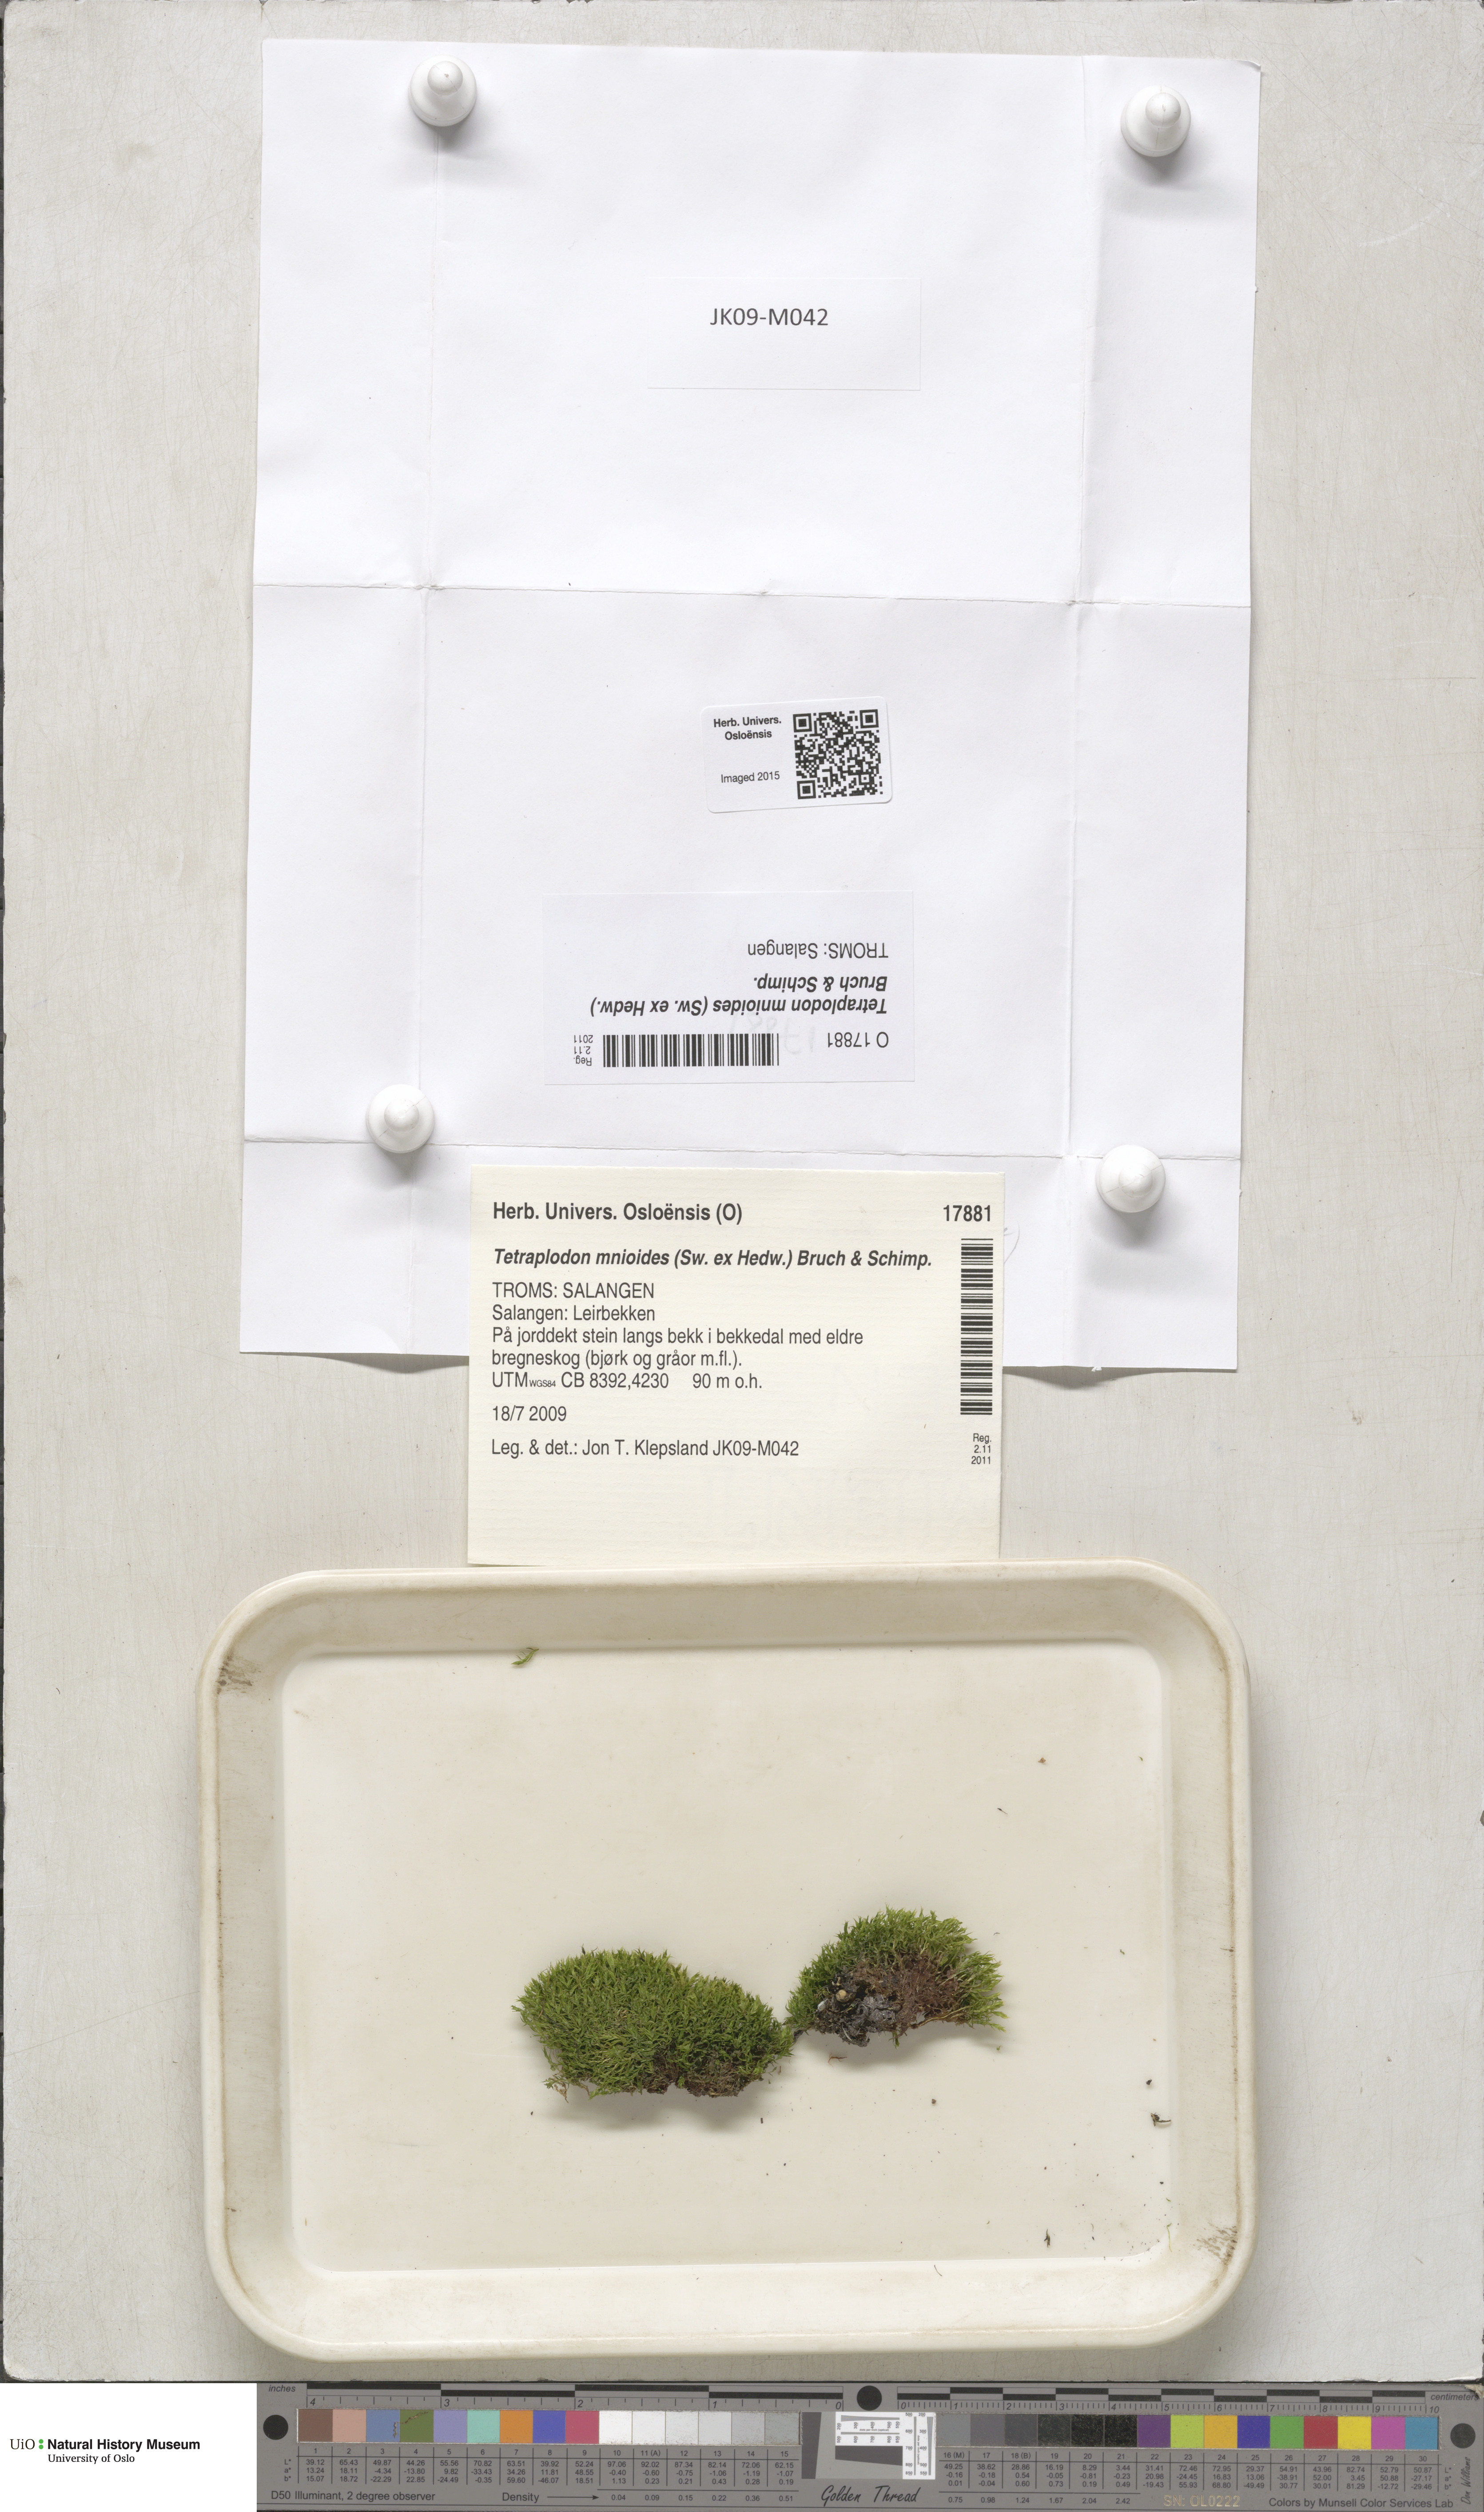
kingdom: Plantae
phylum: Bryophyta
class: Bryopsida
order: Splachnales
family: Splachnaceae
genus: Tetraplodon
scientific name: Tetraplodon mnioides
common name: Entire-leaved nitrogen moss
